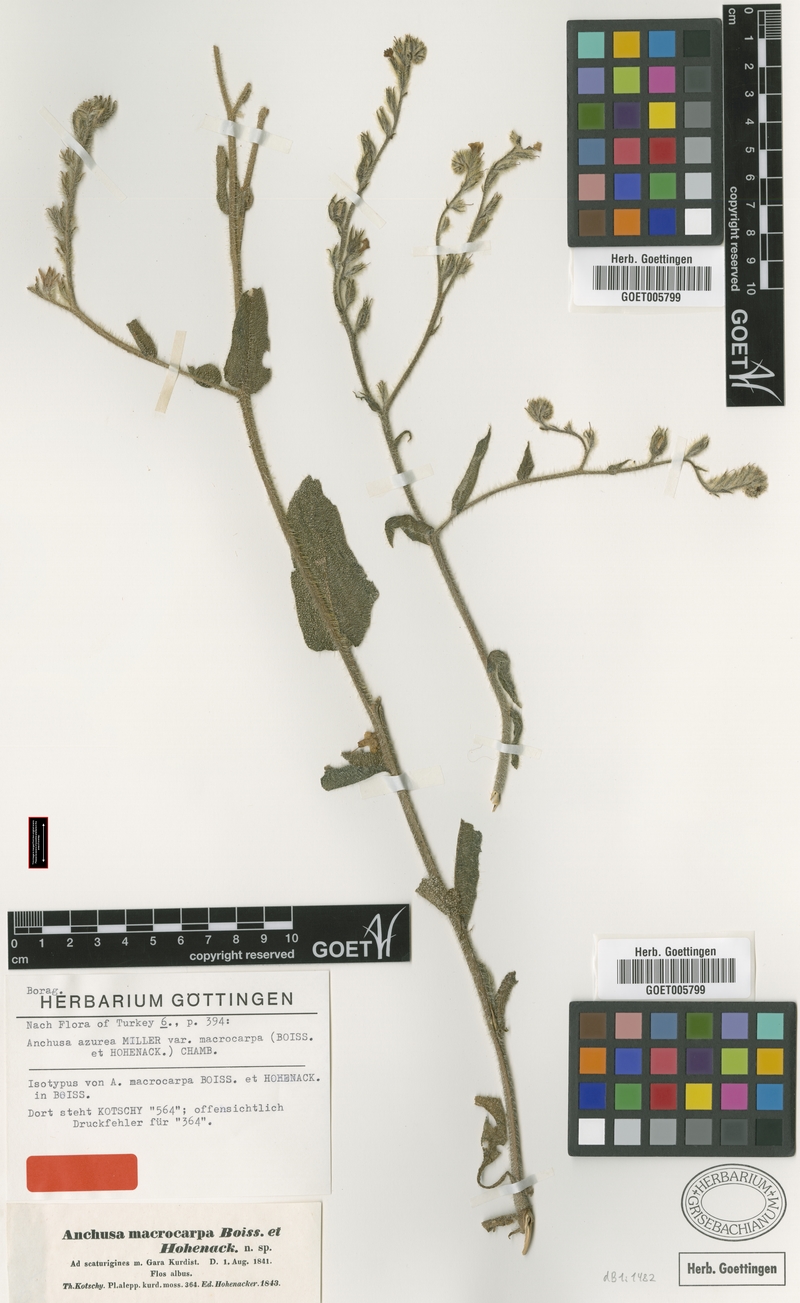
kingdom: Plantae
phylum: Tracheophyta
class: Magnoliopsida
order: Boraginales
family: Boraginaceae
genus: Anchusa
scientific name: Anchusa azurea
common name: Garden anchusa
